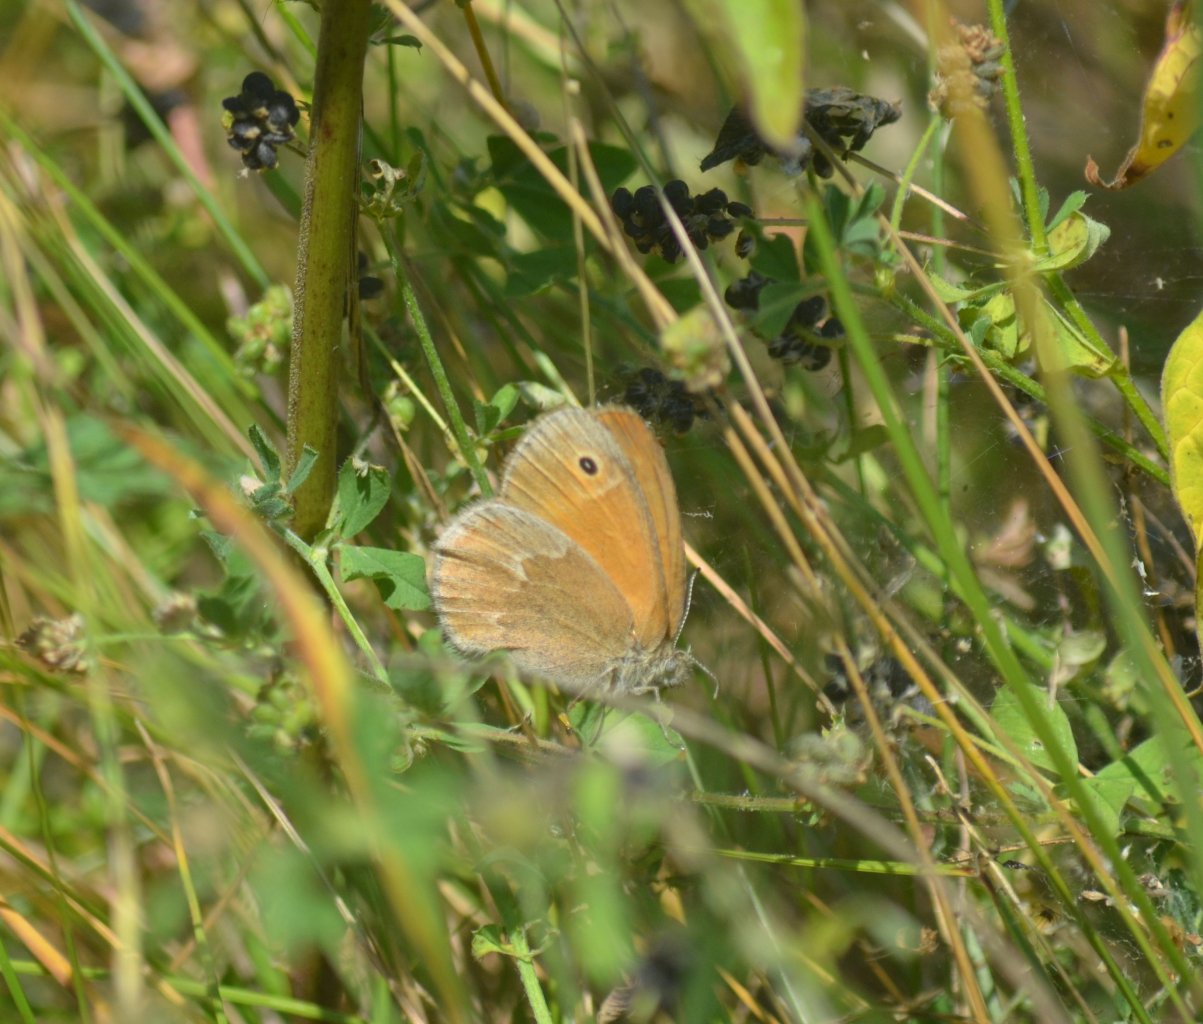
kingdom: Animalia
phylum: Arthropoda
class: Insecta
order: Lepidoptera
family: Nymphalidae
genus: Coenonympha
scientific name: Coenonympha tullia
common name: Large Heath
